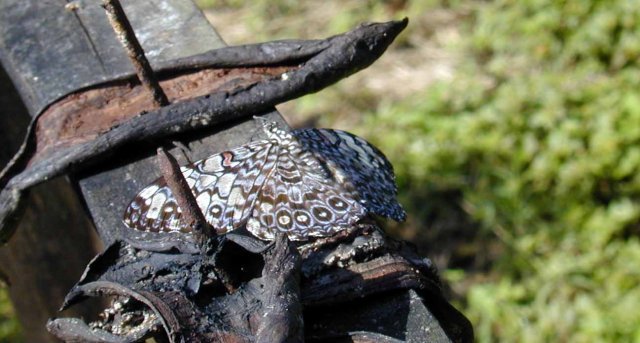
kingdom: Animalia
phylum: Arthropoda
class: Insecta
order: Lepidoptera
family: Nymphalidae
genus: Hamadryas
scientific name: Hamadryas iphthime
